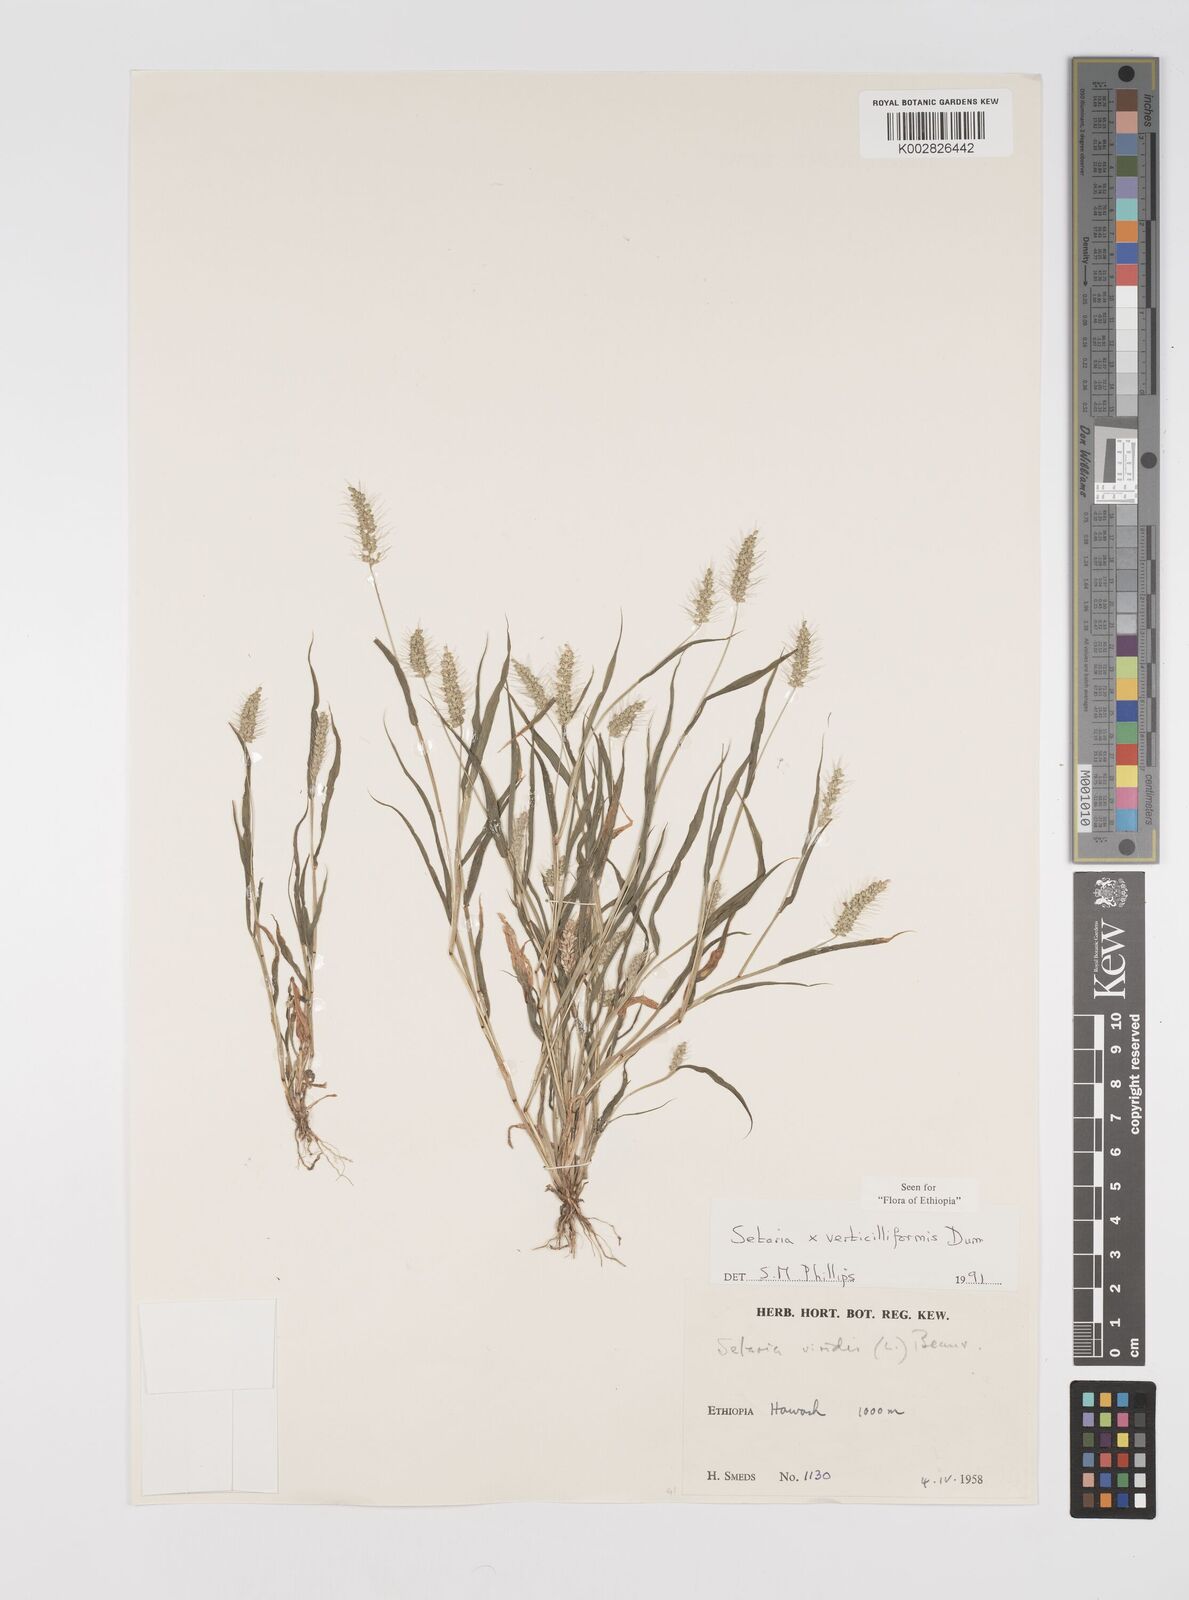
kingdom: Plantae
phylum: Tracheophyta
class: Liliopsida
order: Poales
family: Poaceae
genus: Setaria
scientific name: Setaria verticillata
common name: Hooked bristlegrass
